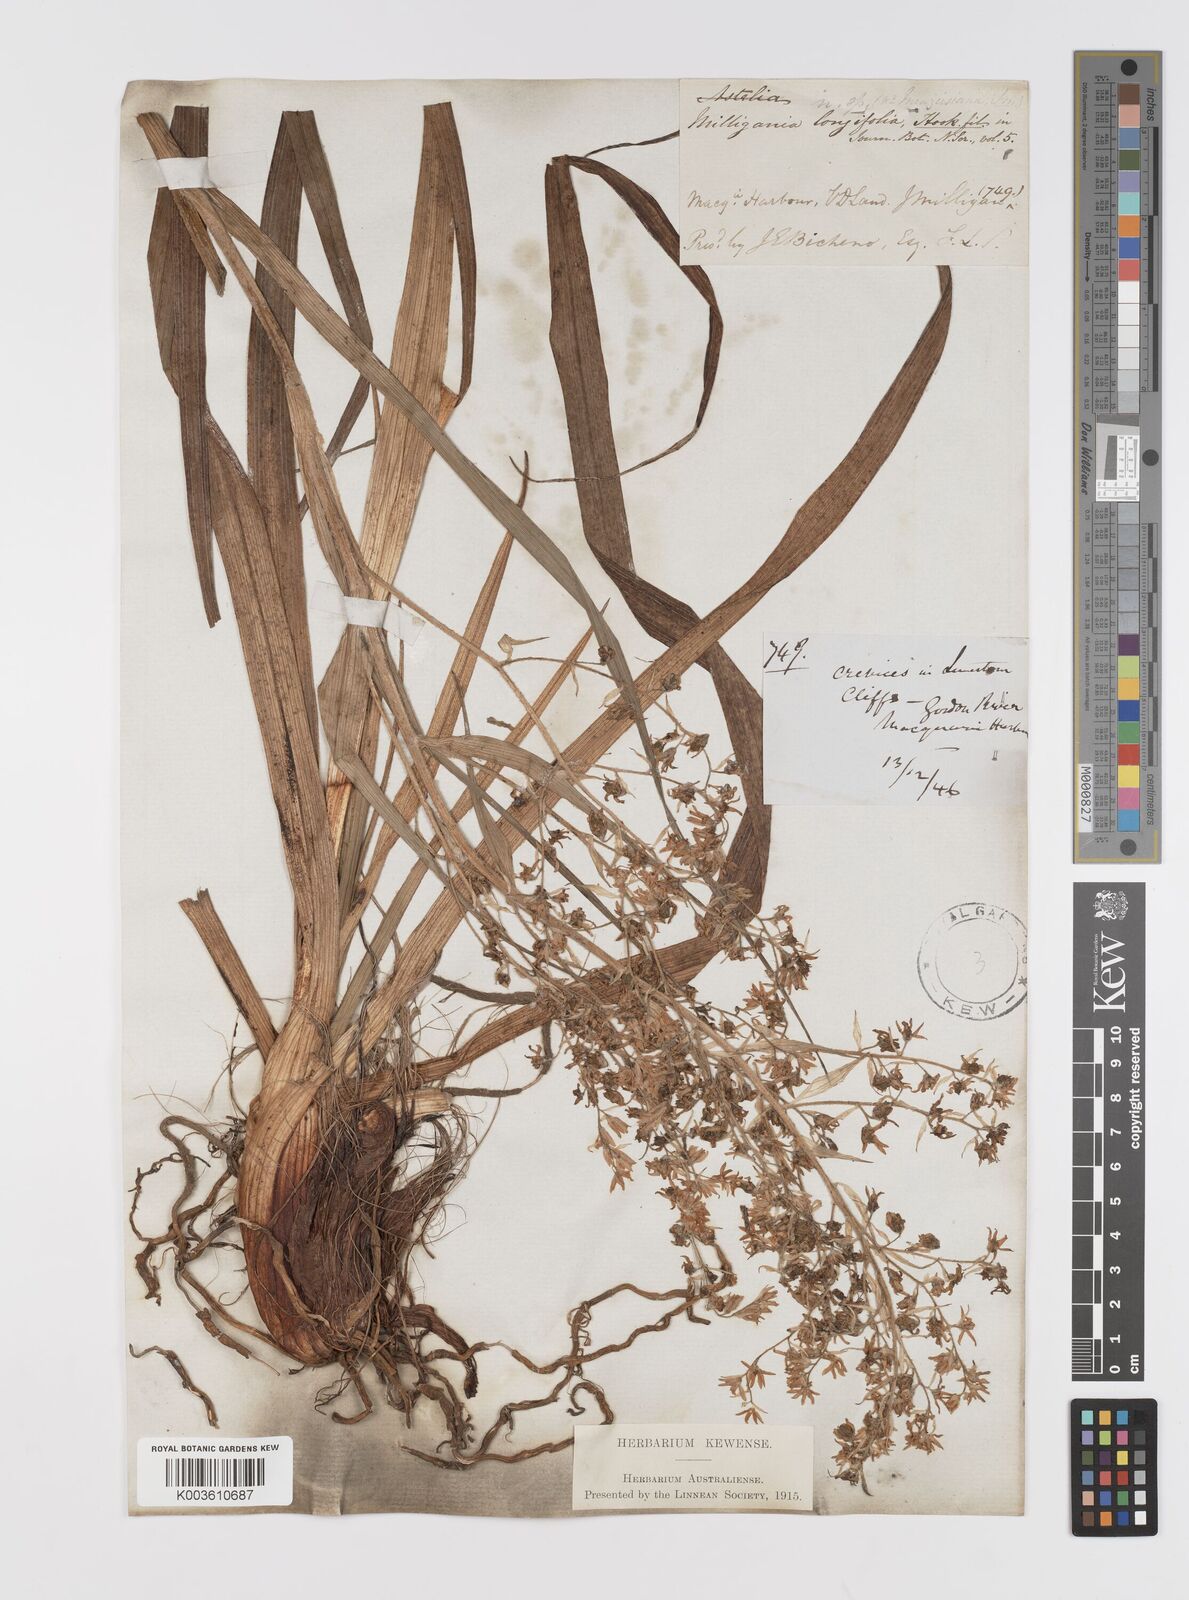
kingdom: Plantae
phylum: Tracheophyta
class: Liliopsida
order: Asparagales
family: Asteliaceae
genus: Milligania
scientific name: Milligania longifolia
